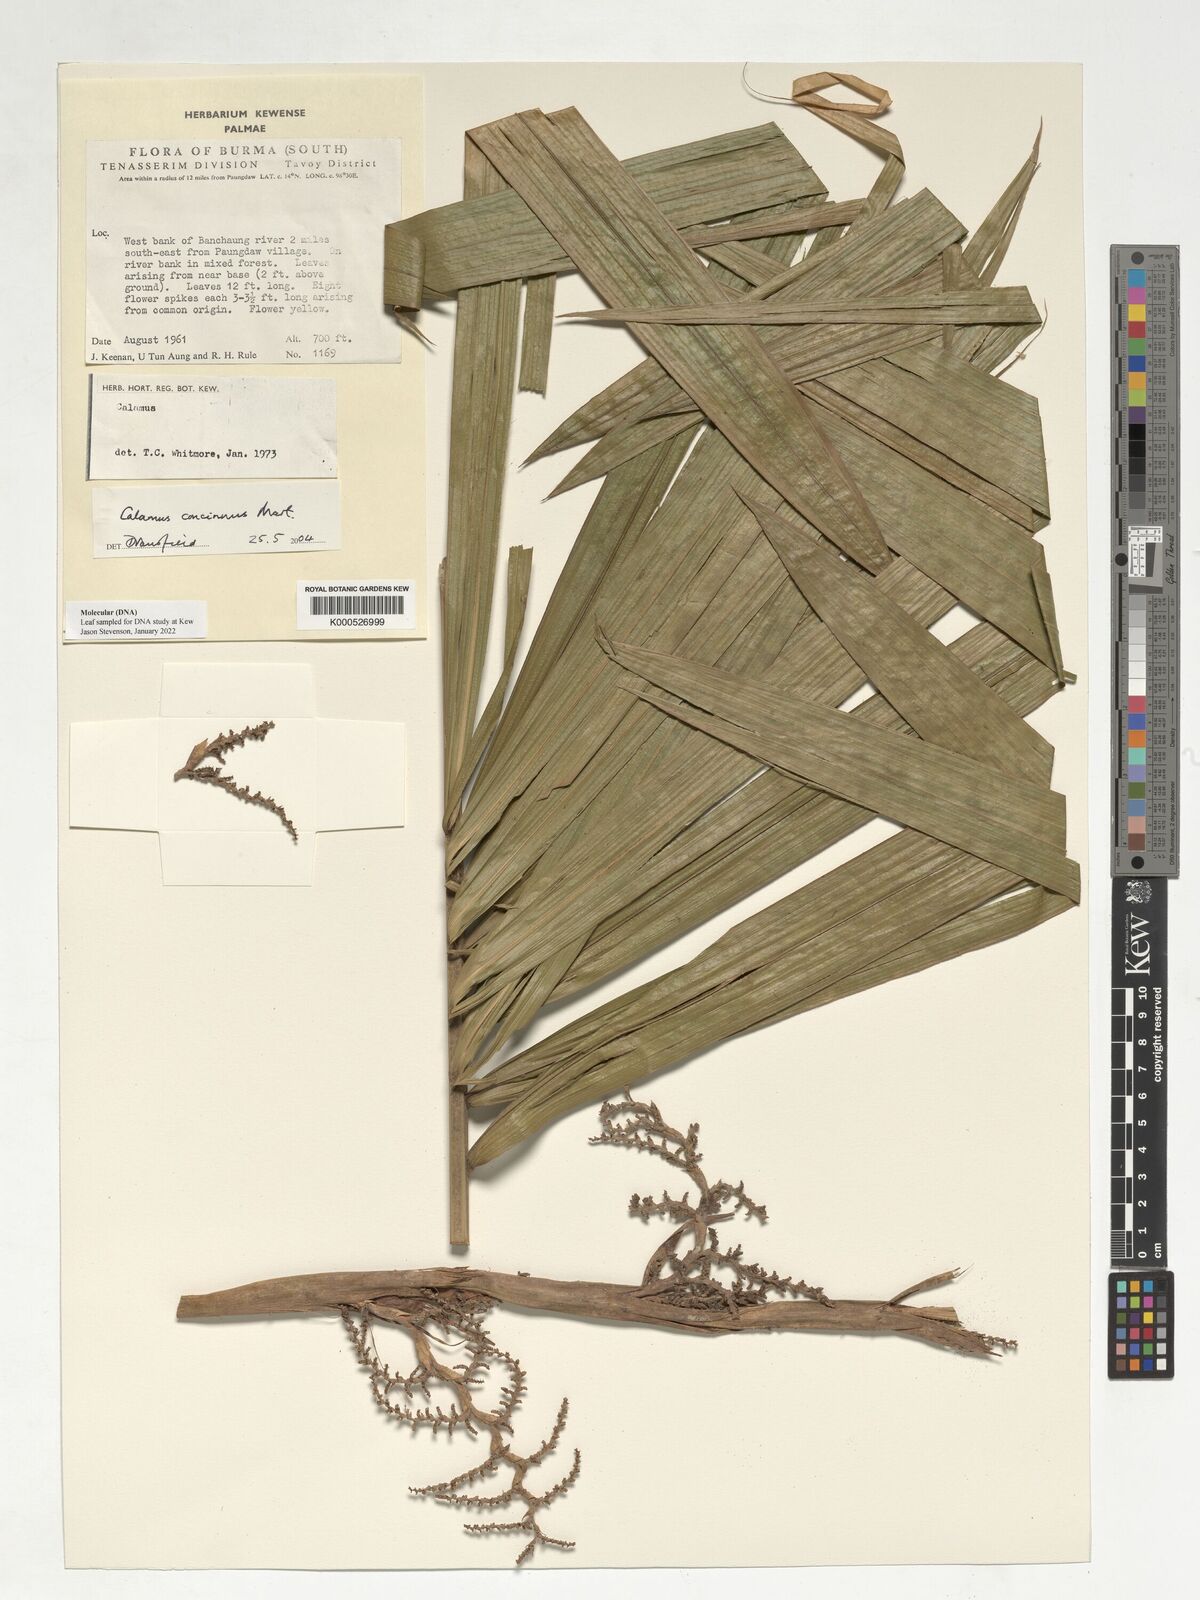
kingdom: Plantae
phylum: Tracheophyta
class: Liliopsida
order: Arecales
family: Arecaceae
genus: Calamus
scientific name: Calamus concinnus
